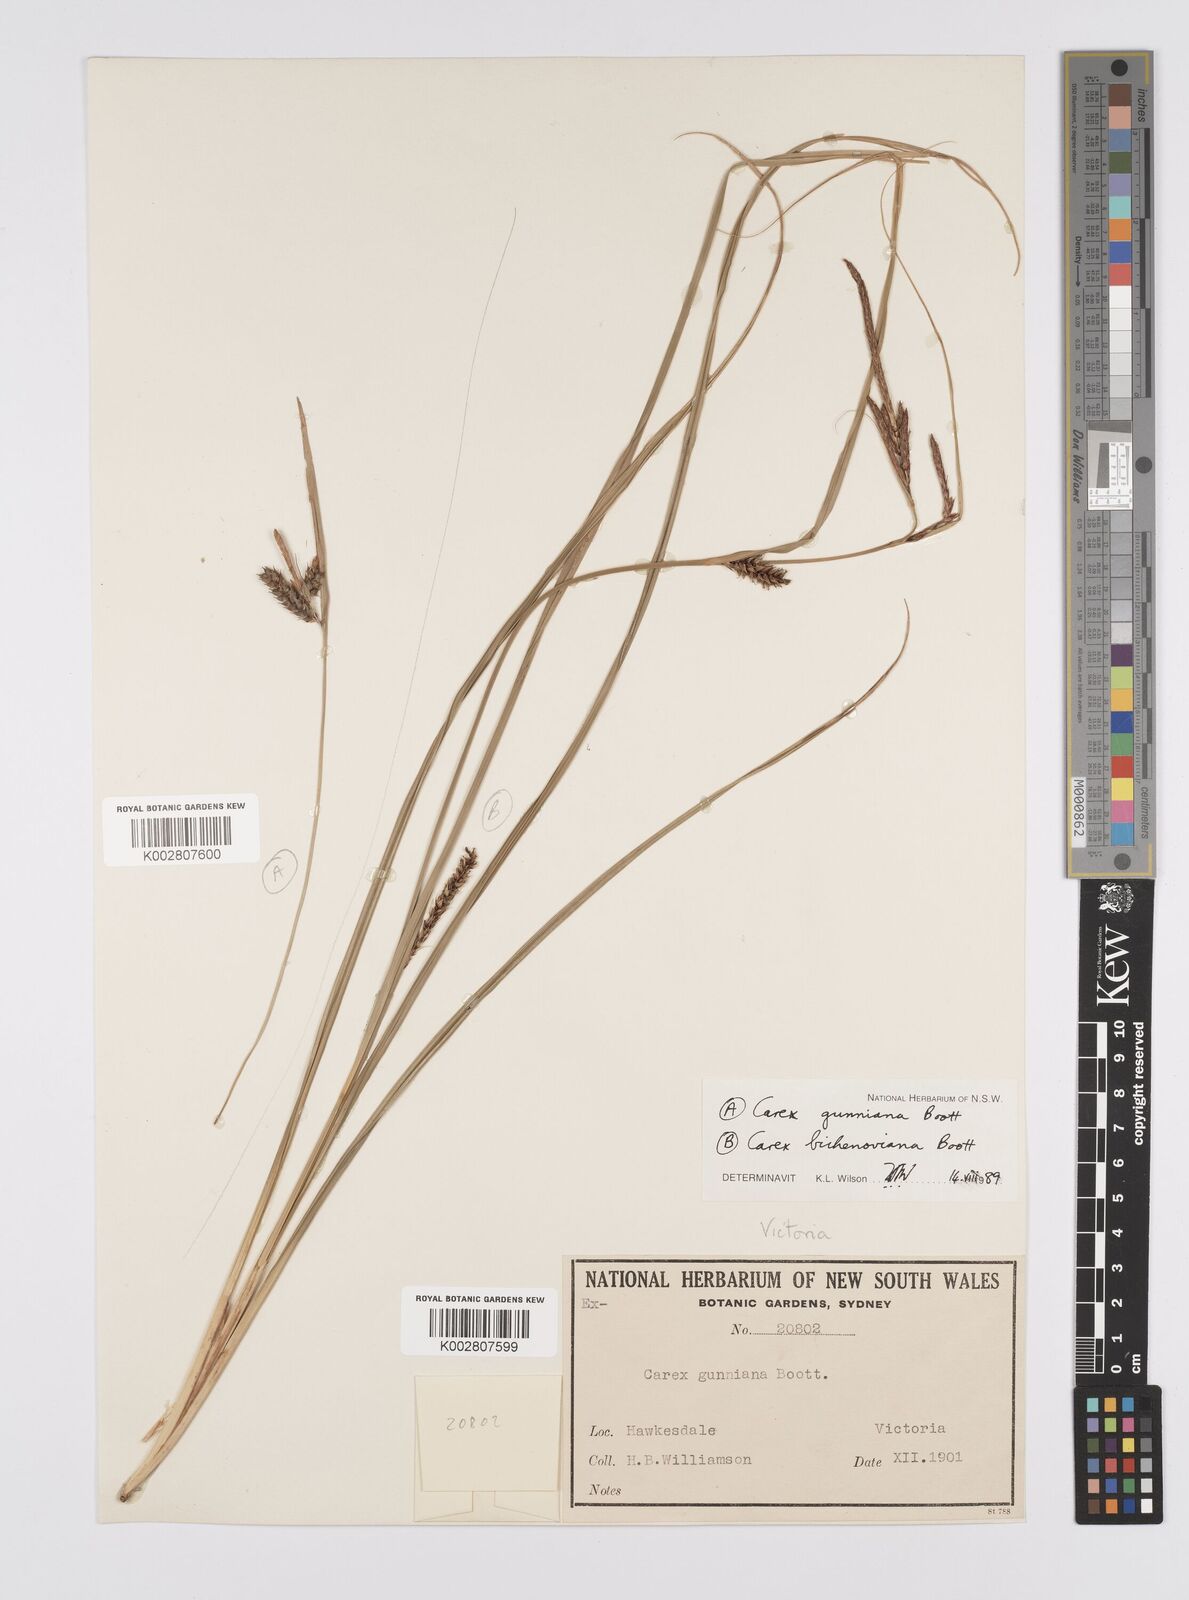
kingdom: Plantae
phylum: Tracheophyta
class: Liliopsida
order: Poales
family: Cyperaceae
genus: Carex
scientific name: Carex gunniana
